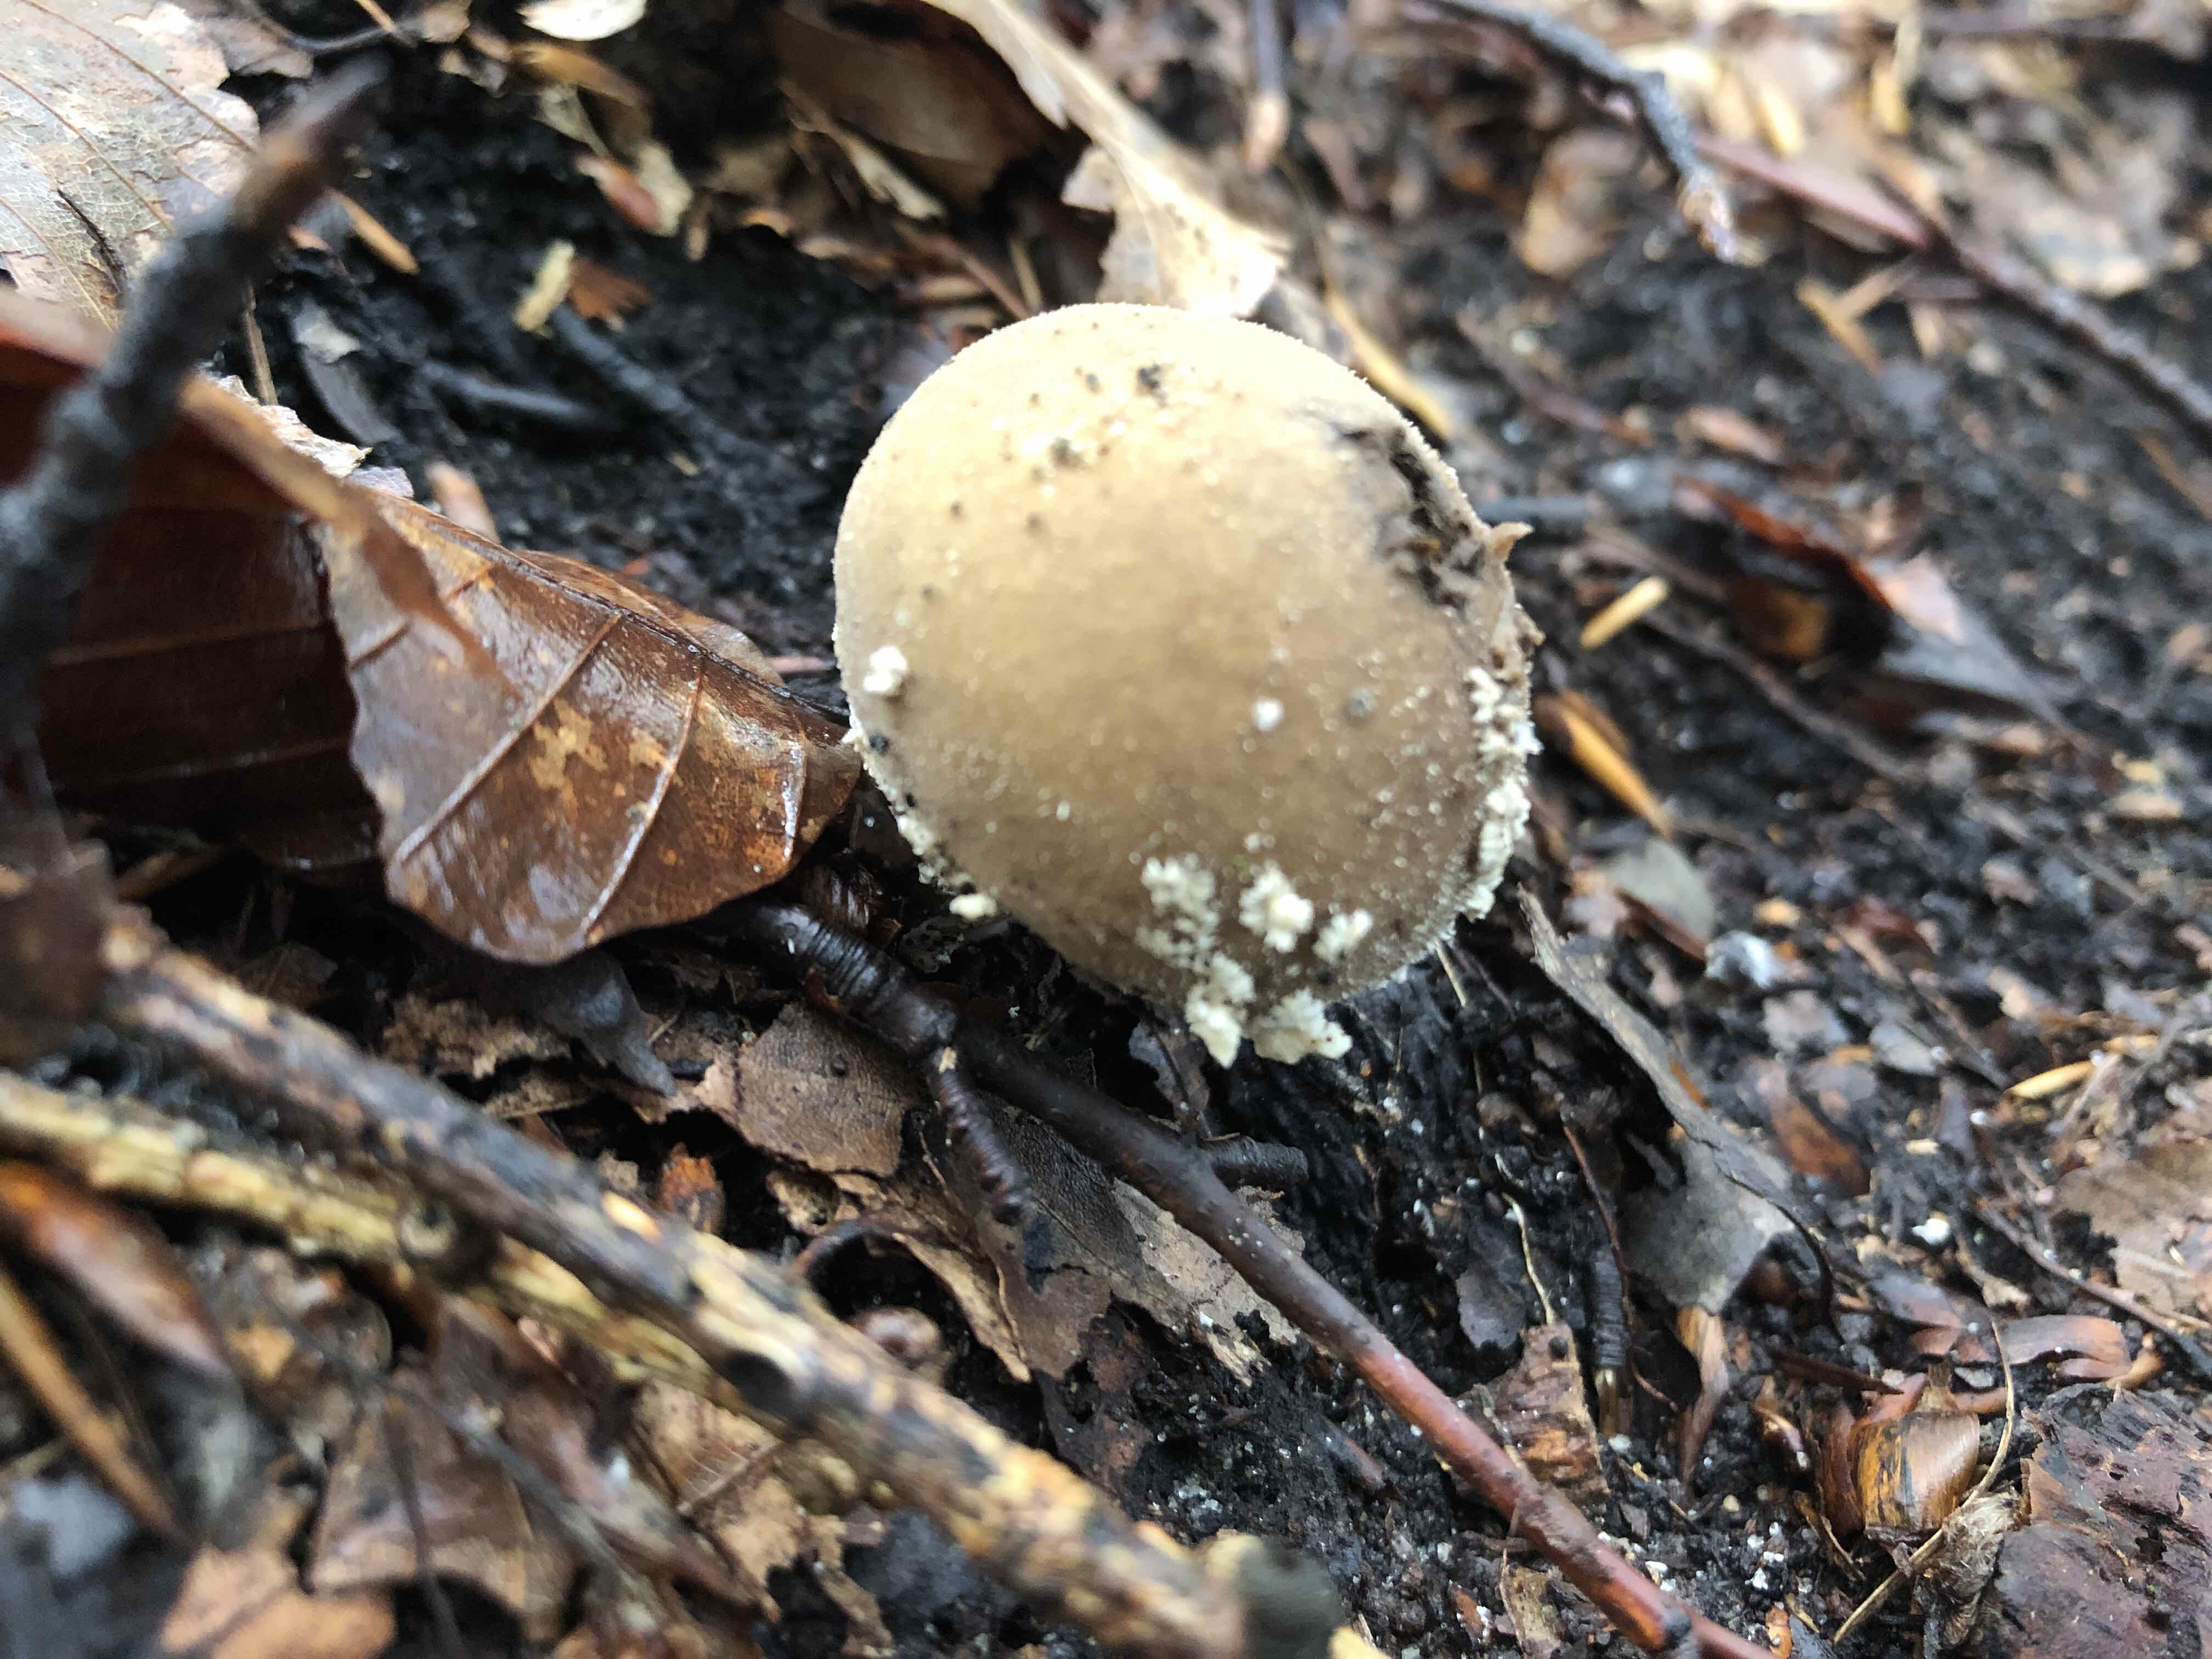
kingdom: Fungi
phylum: Basidiomycota
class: Agaricomycetes
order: Agaricales
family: Lycoperdaceae
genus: Lycoperdon
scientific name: Lycoperdon mammiforme
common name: rosa støvbold
